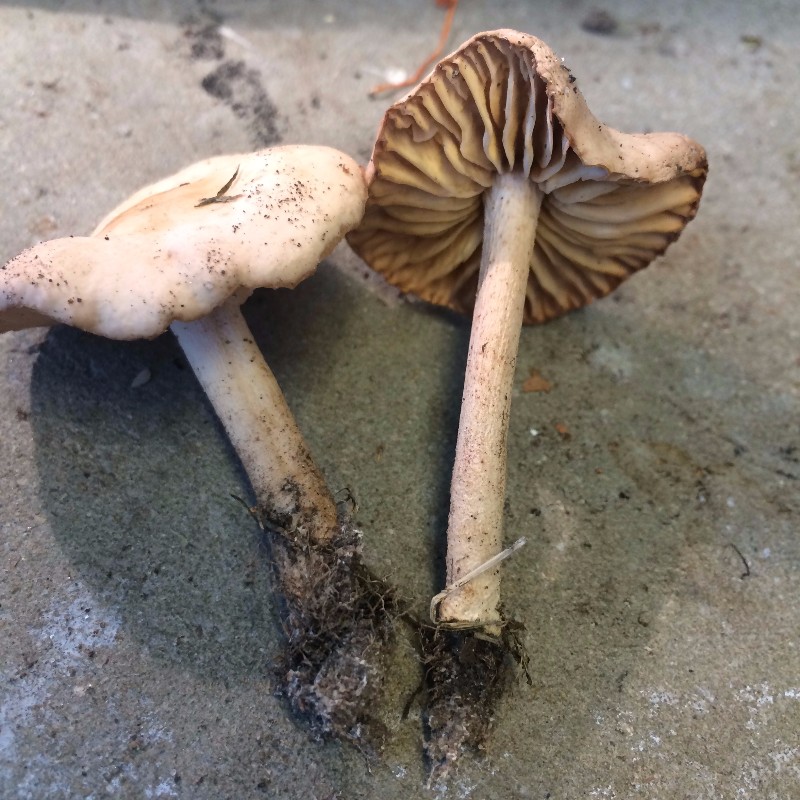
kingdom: Fungi
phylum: Basidiomycota
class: Agaricomycetes
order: Agaricales
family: Hydnangiaceae
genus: Laccaria
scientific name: Laccaria laccata
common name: rød ametysthat
